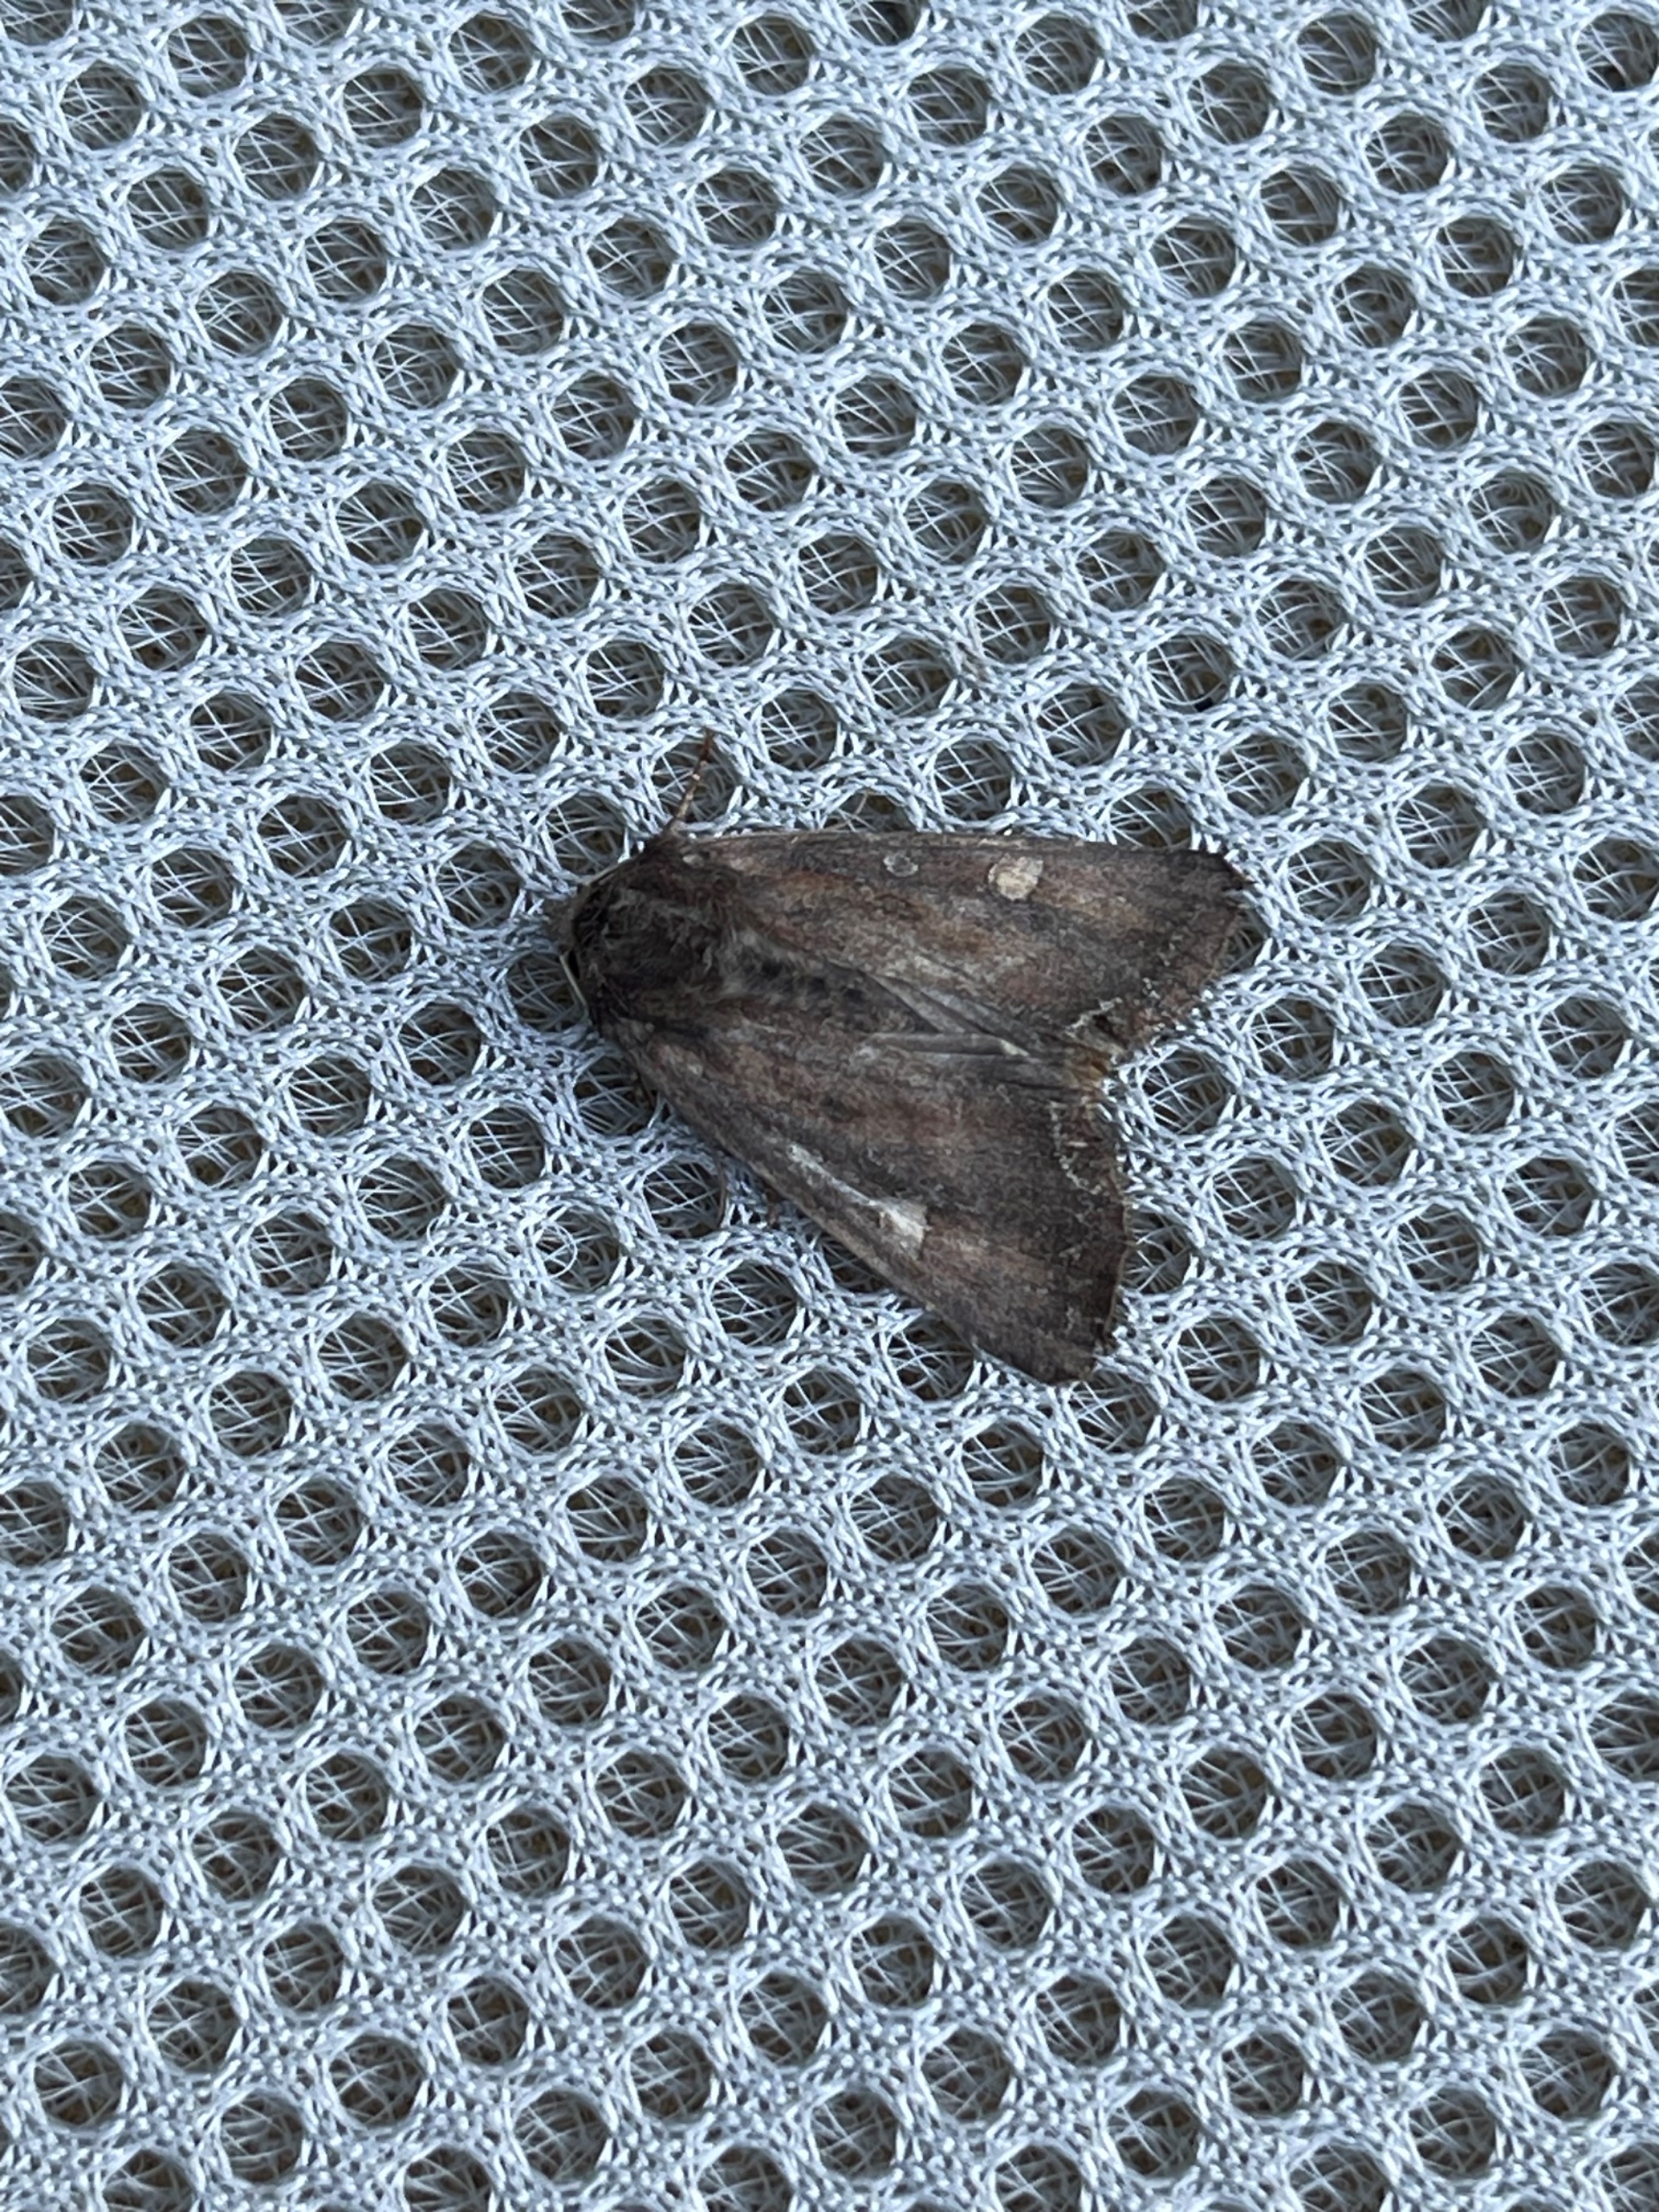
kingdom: Animalia
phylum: Arthropoda
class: Insecta
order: Lepidoptera
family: Noctuidae
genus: Lacanobia
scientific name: Lacanobia oleracea
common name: Haveugle
